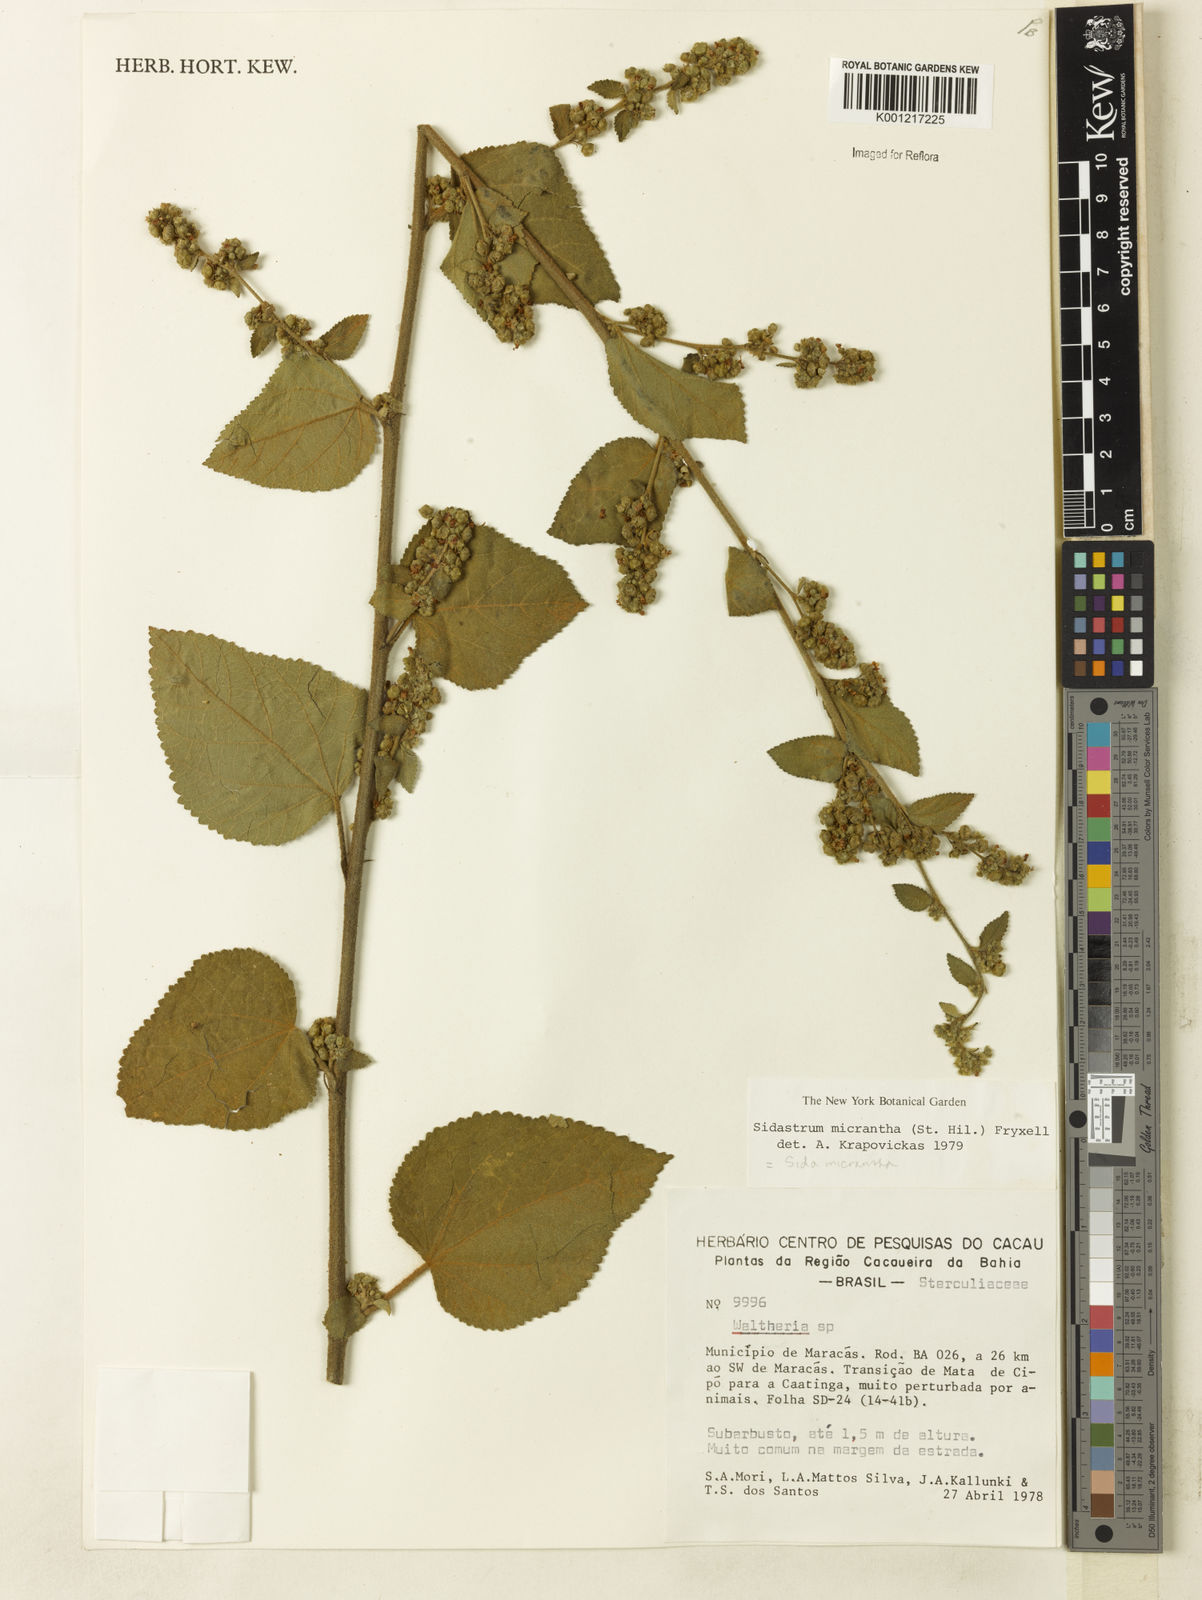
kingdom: Plantae
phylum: Tracheophyta
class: Magnoliopsida
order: Malvales
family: Malvaceae
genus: Sidastrum
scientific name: Sidastrum micranthum
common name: Dainty sandmallow
